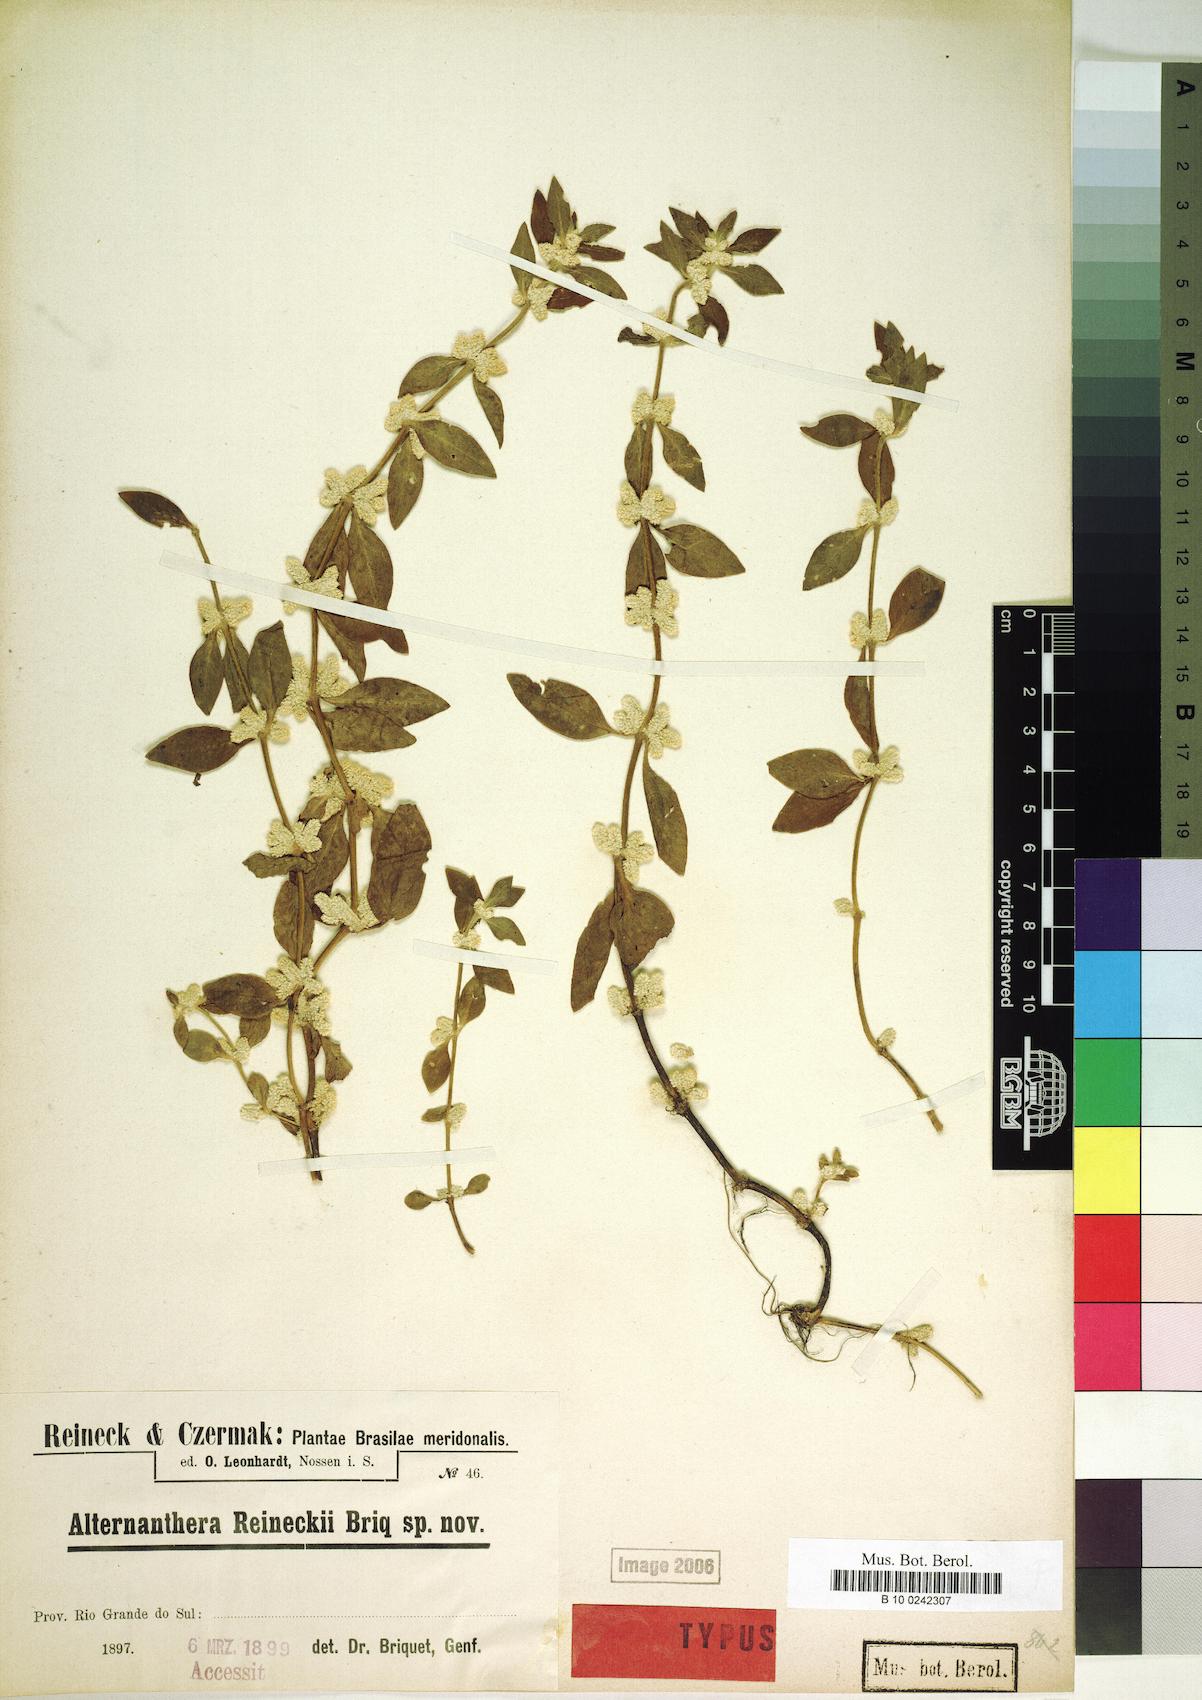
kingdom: Plantae
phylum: Tracheophyta
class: Magnoliopsida
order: Caryophyllales
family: Amaranthaceae
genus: Alternanthera
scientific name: Alternanthera reineckii
